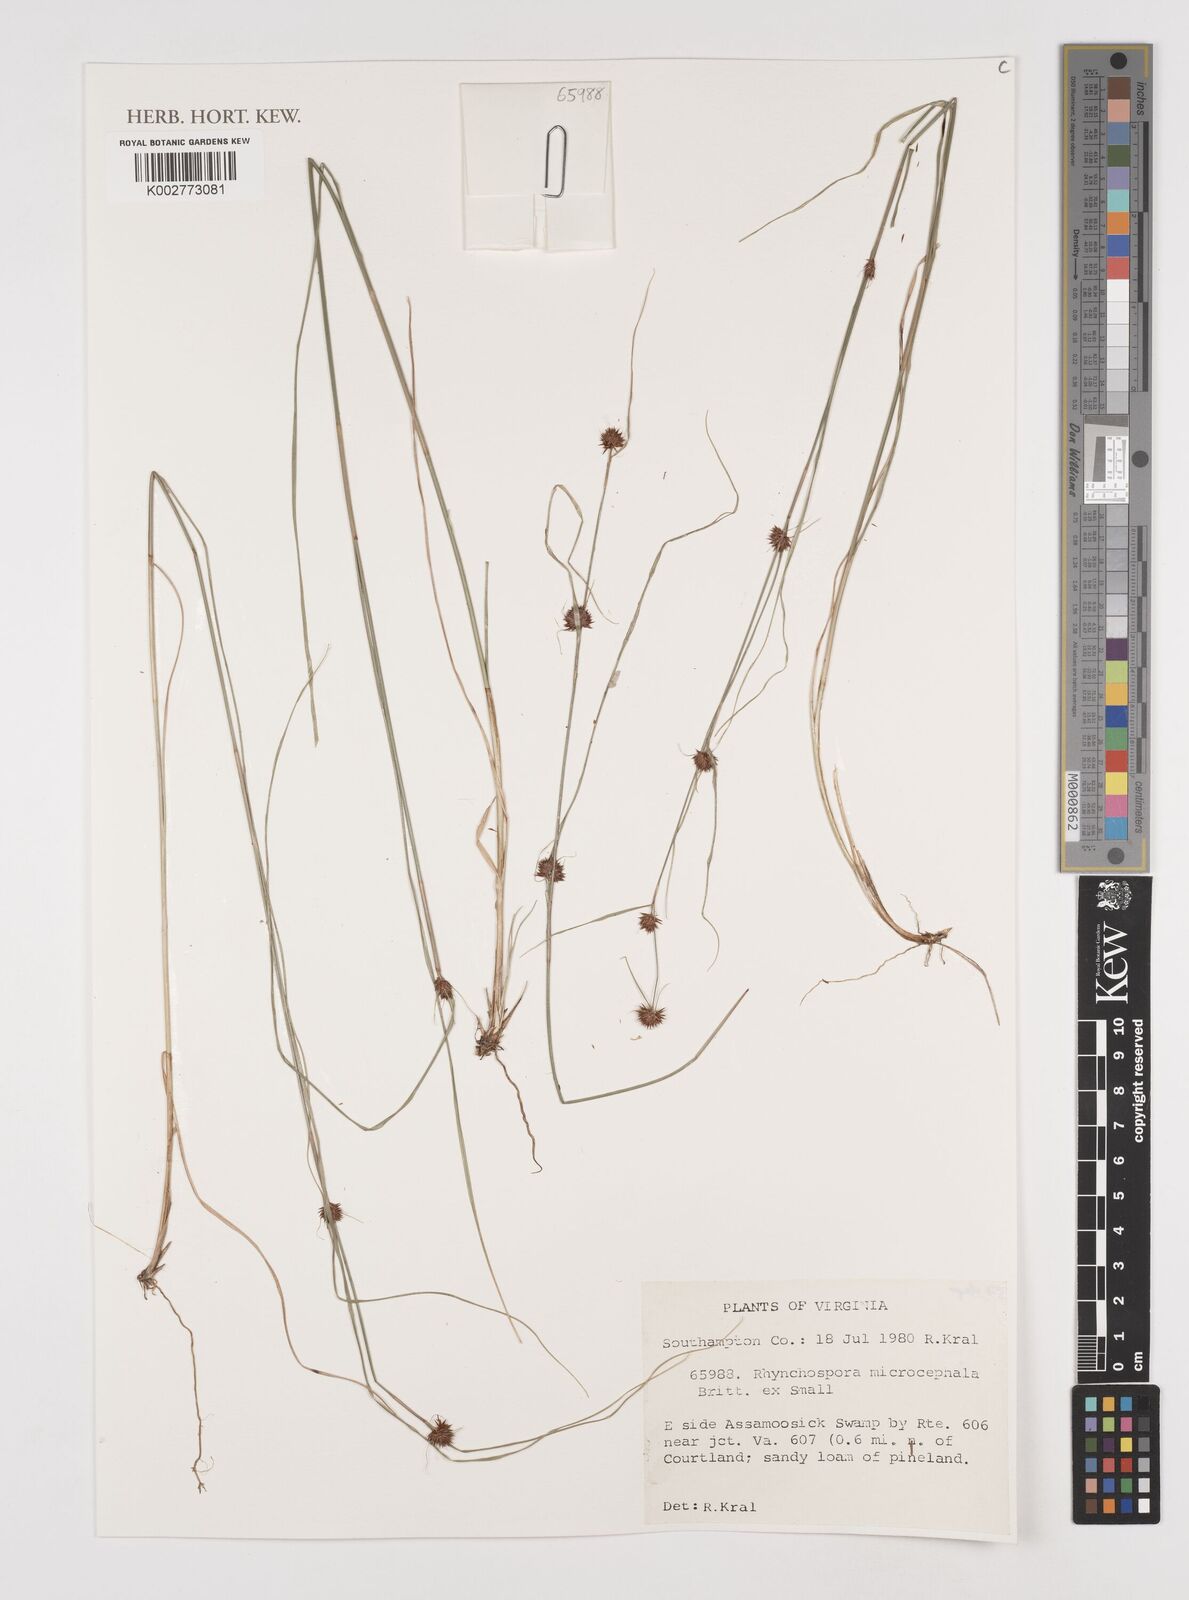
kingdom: Plantae
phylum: Tracheophyta
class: Liliopsida
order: Poales
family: Cyperaceae
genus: Rhynchospora
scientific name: Rhynchospora microcephala
